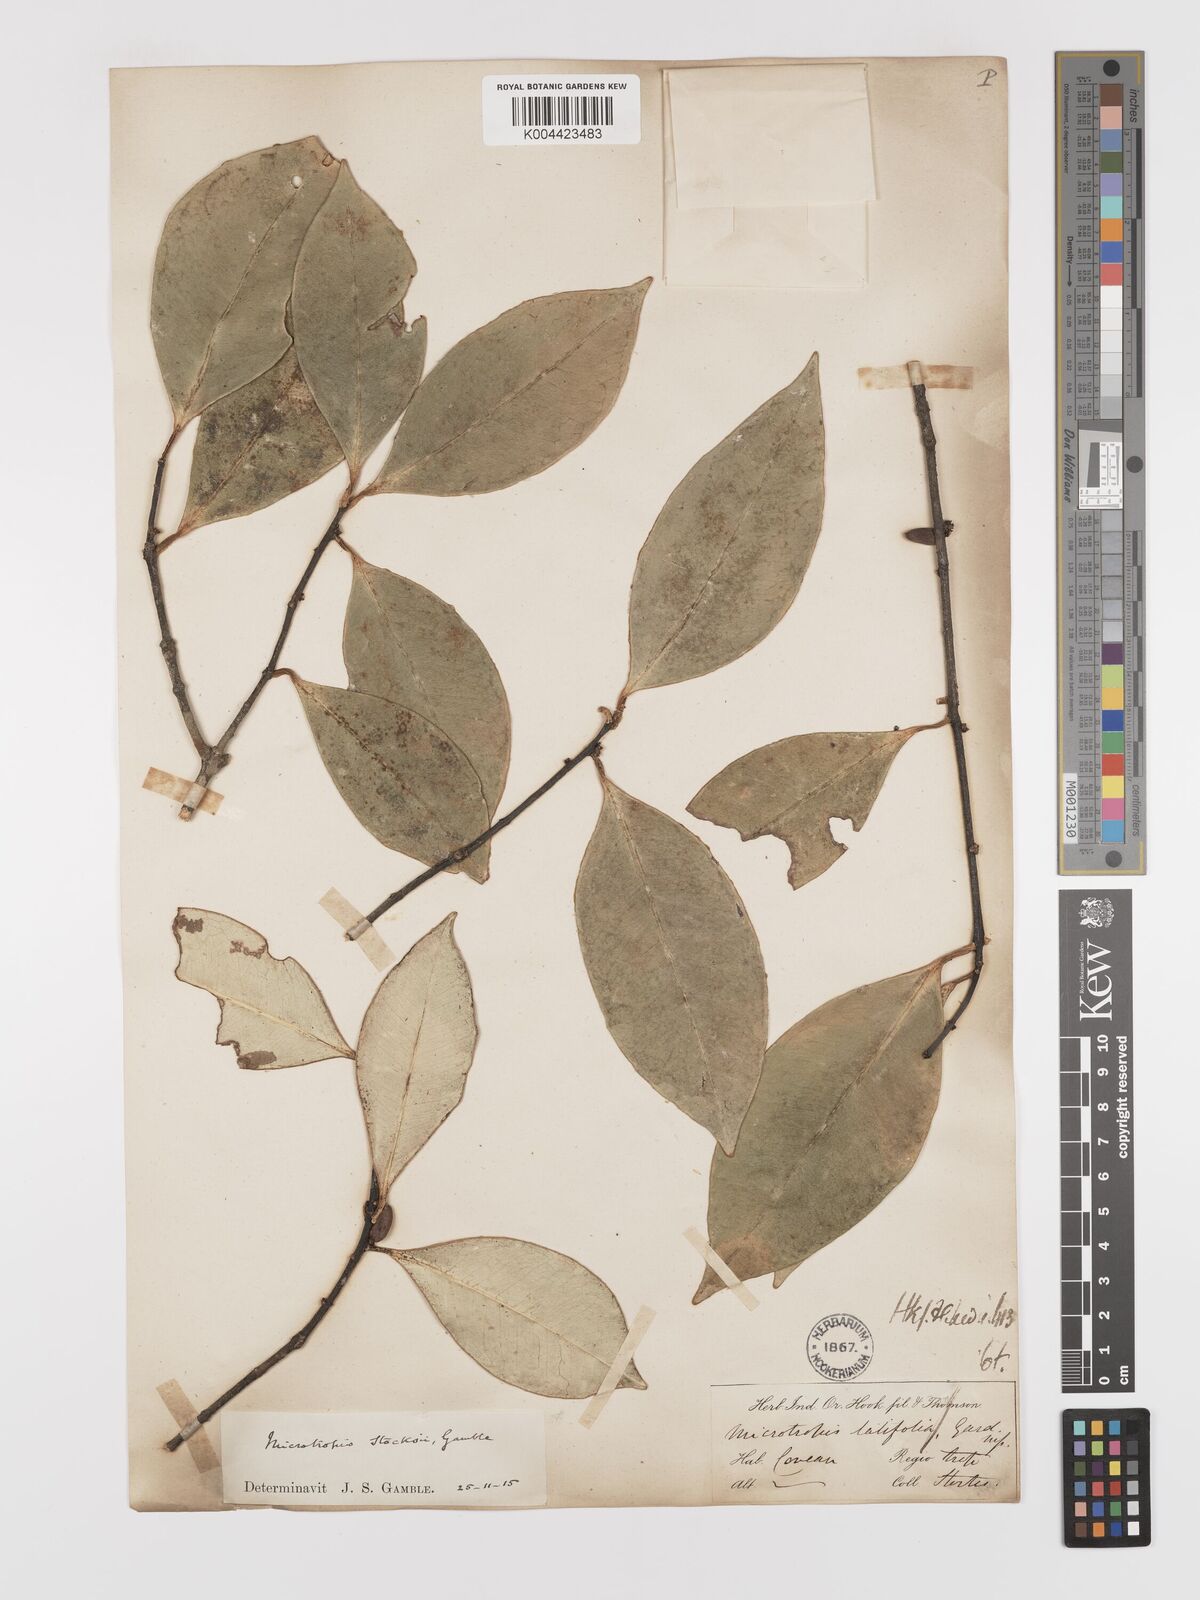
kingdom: Plantae
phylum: Tracheophyta
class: Magnoliopsida
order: Celastrales
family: Celastraceae
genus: Microtropis
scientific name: Microtropis stocksii
